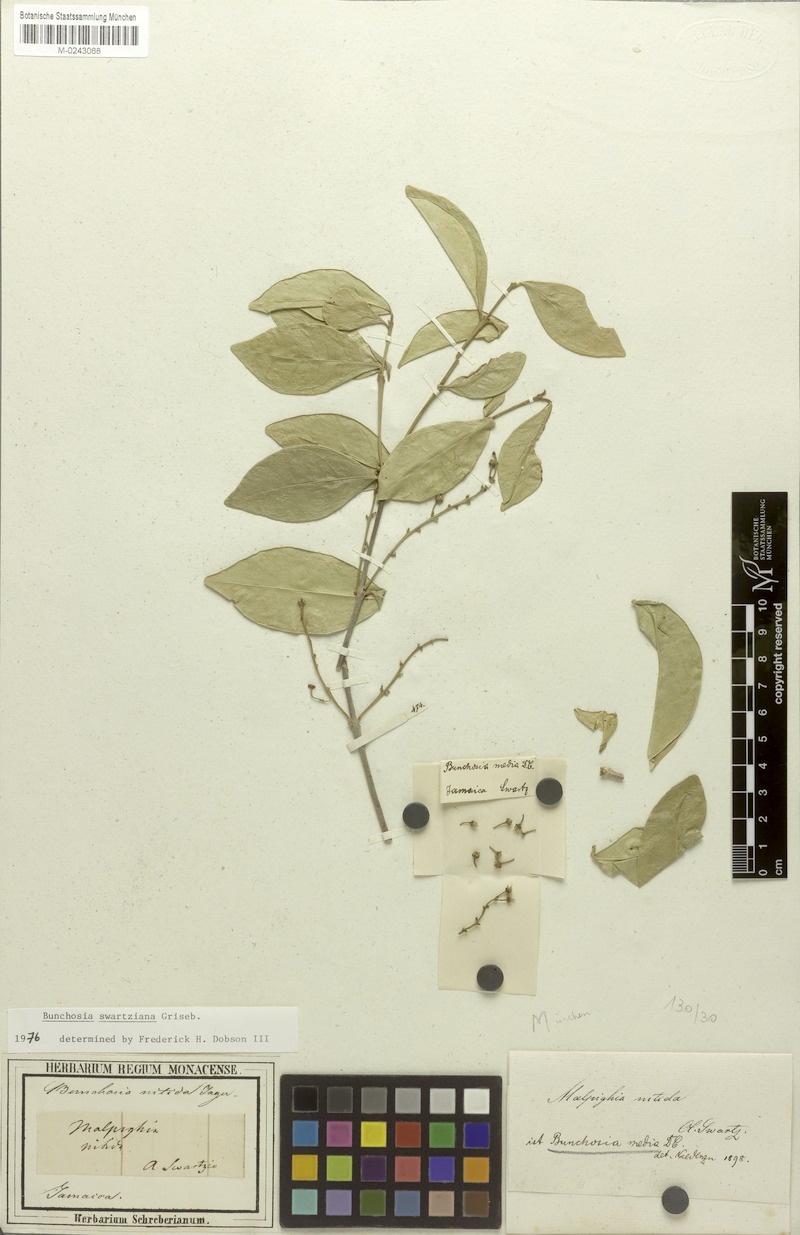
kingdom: Plantae
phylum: Tracheophyta
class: Magnoliopsida
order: Malpighiales
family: Malpighiaceae
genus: Bunchosia
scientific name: Bunchosia swartziana
